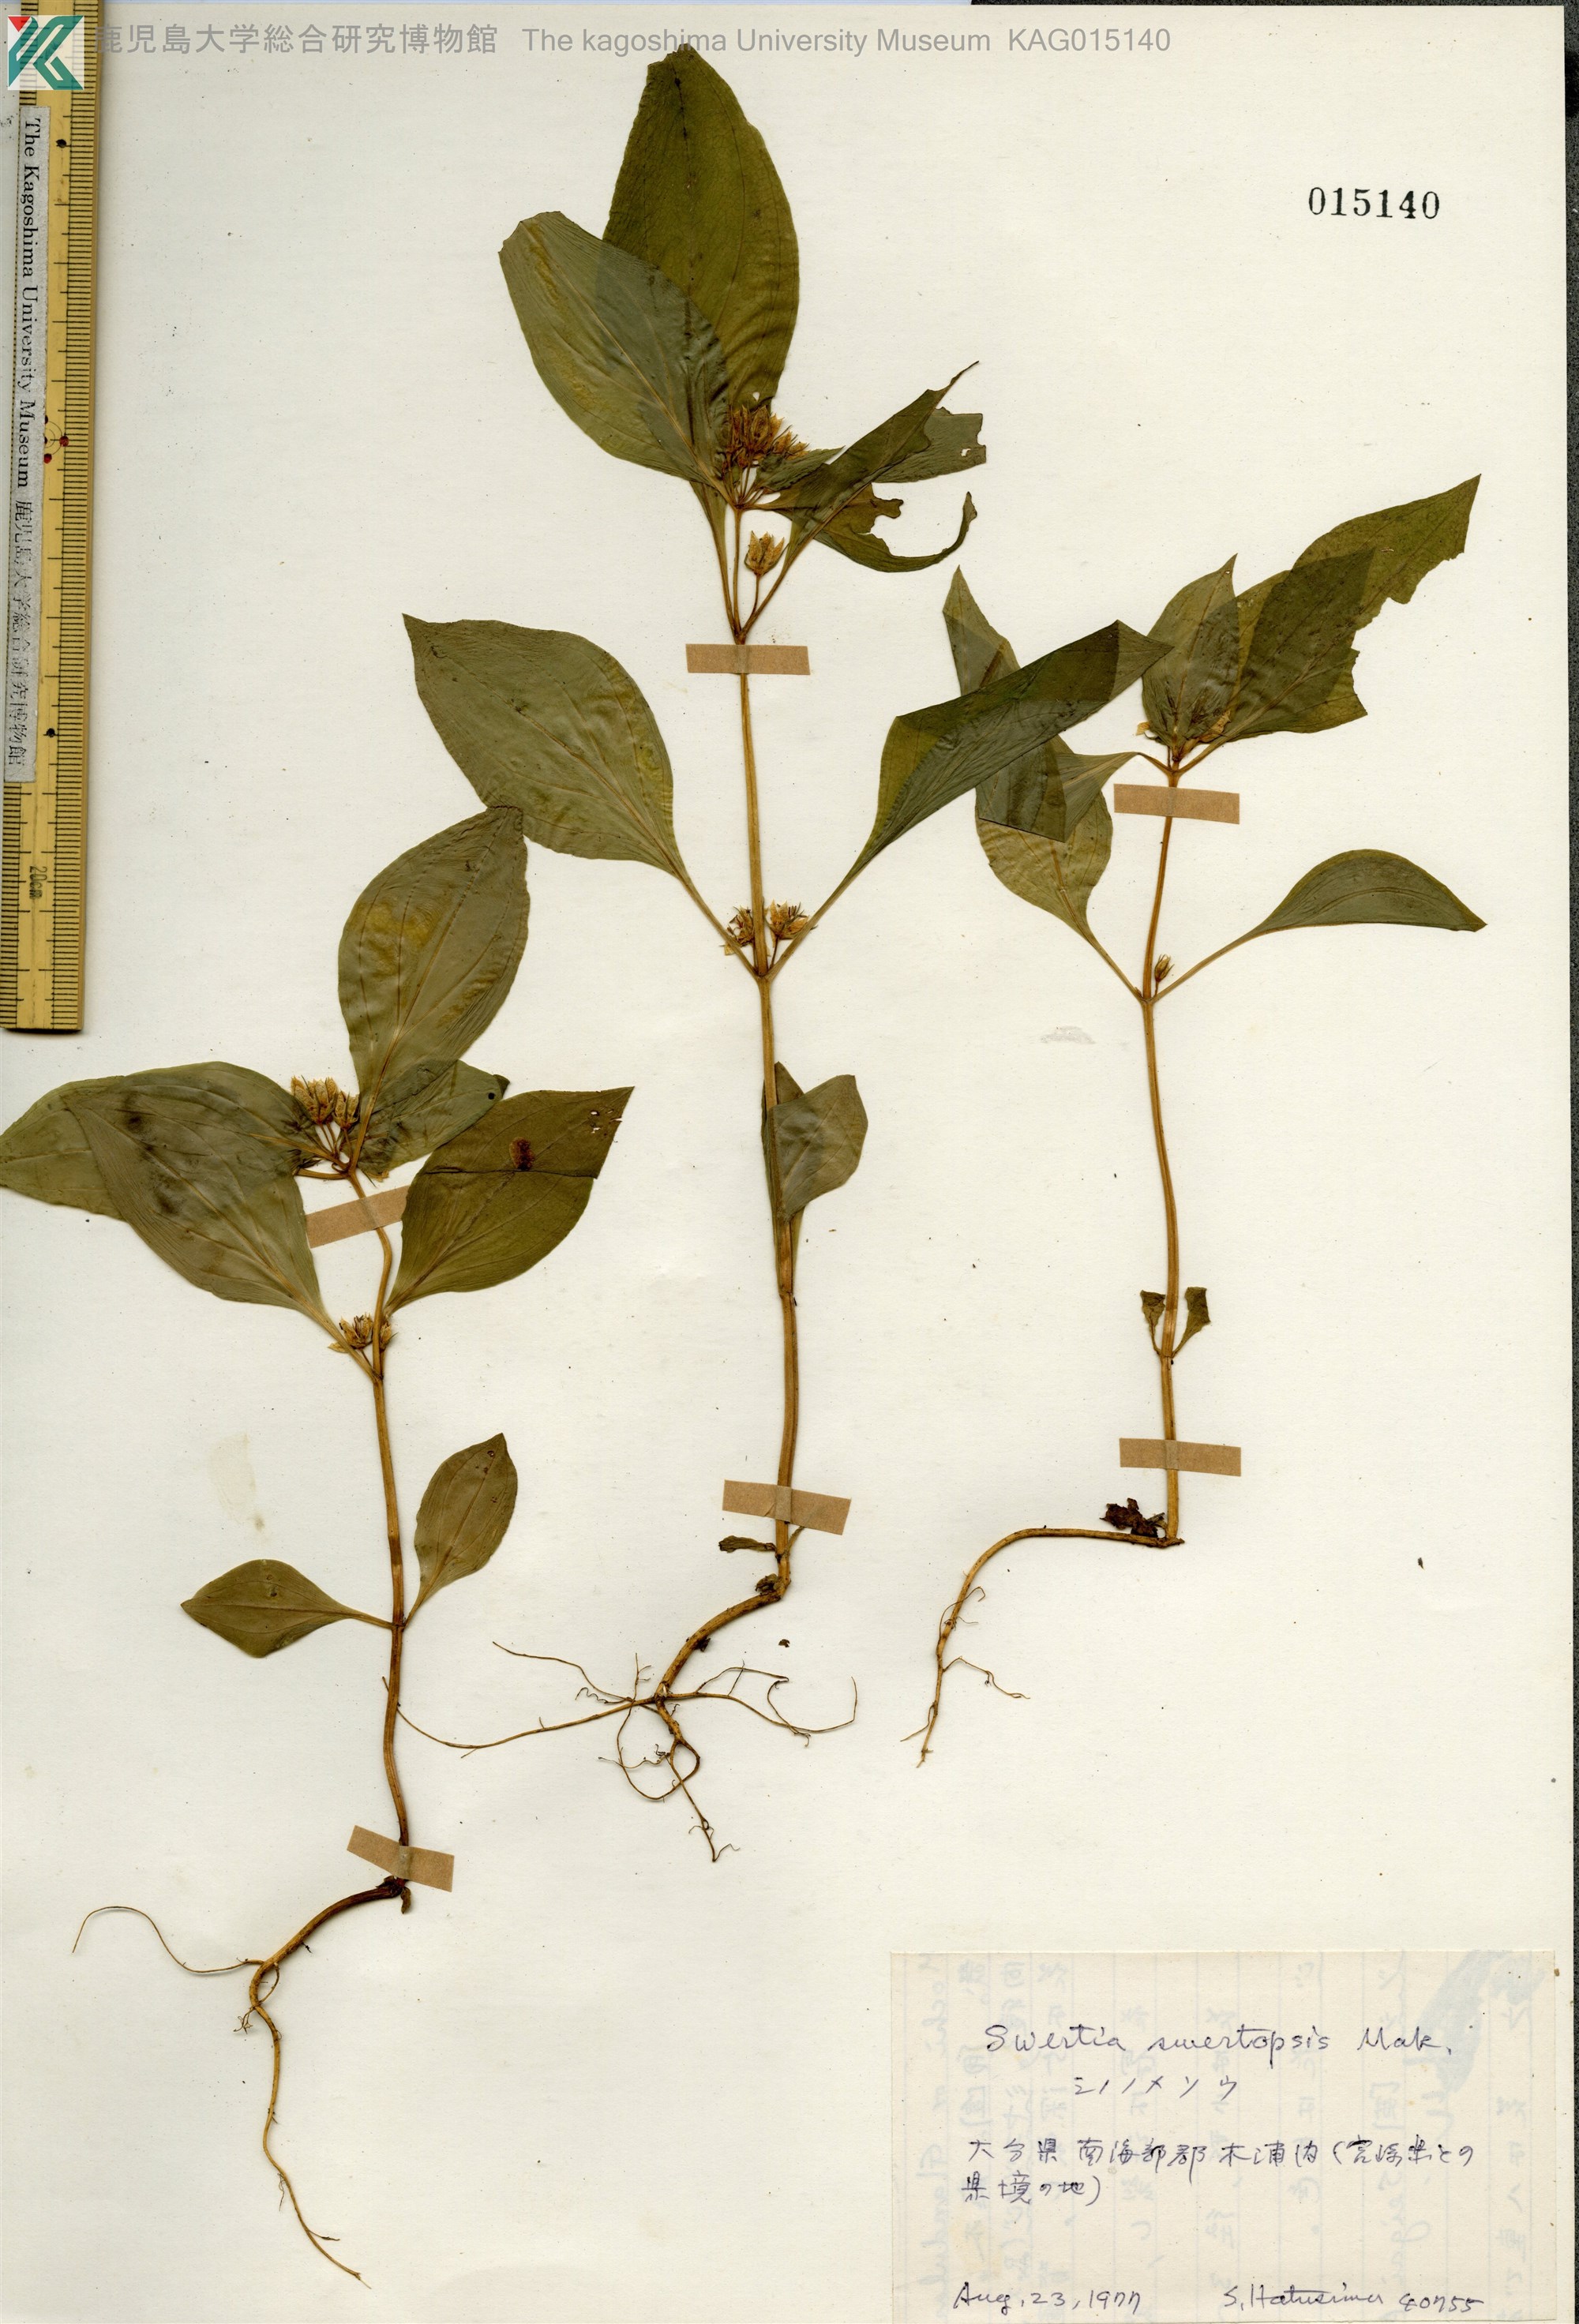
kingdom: Plantae
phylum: Tracheophyta
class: Magnoliopsida
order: Gentianales
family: Gentianaceae
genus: Swertia
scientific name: Swertia swertopsis
